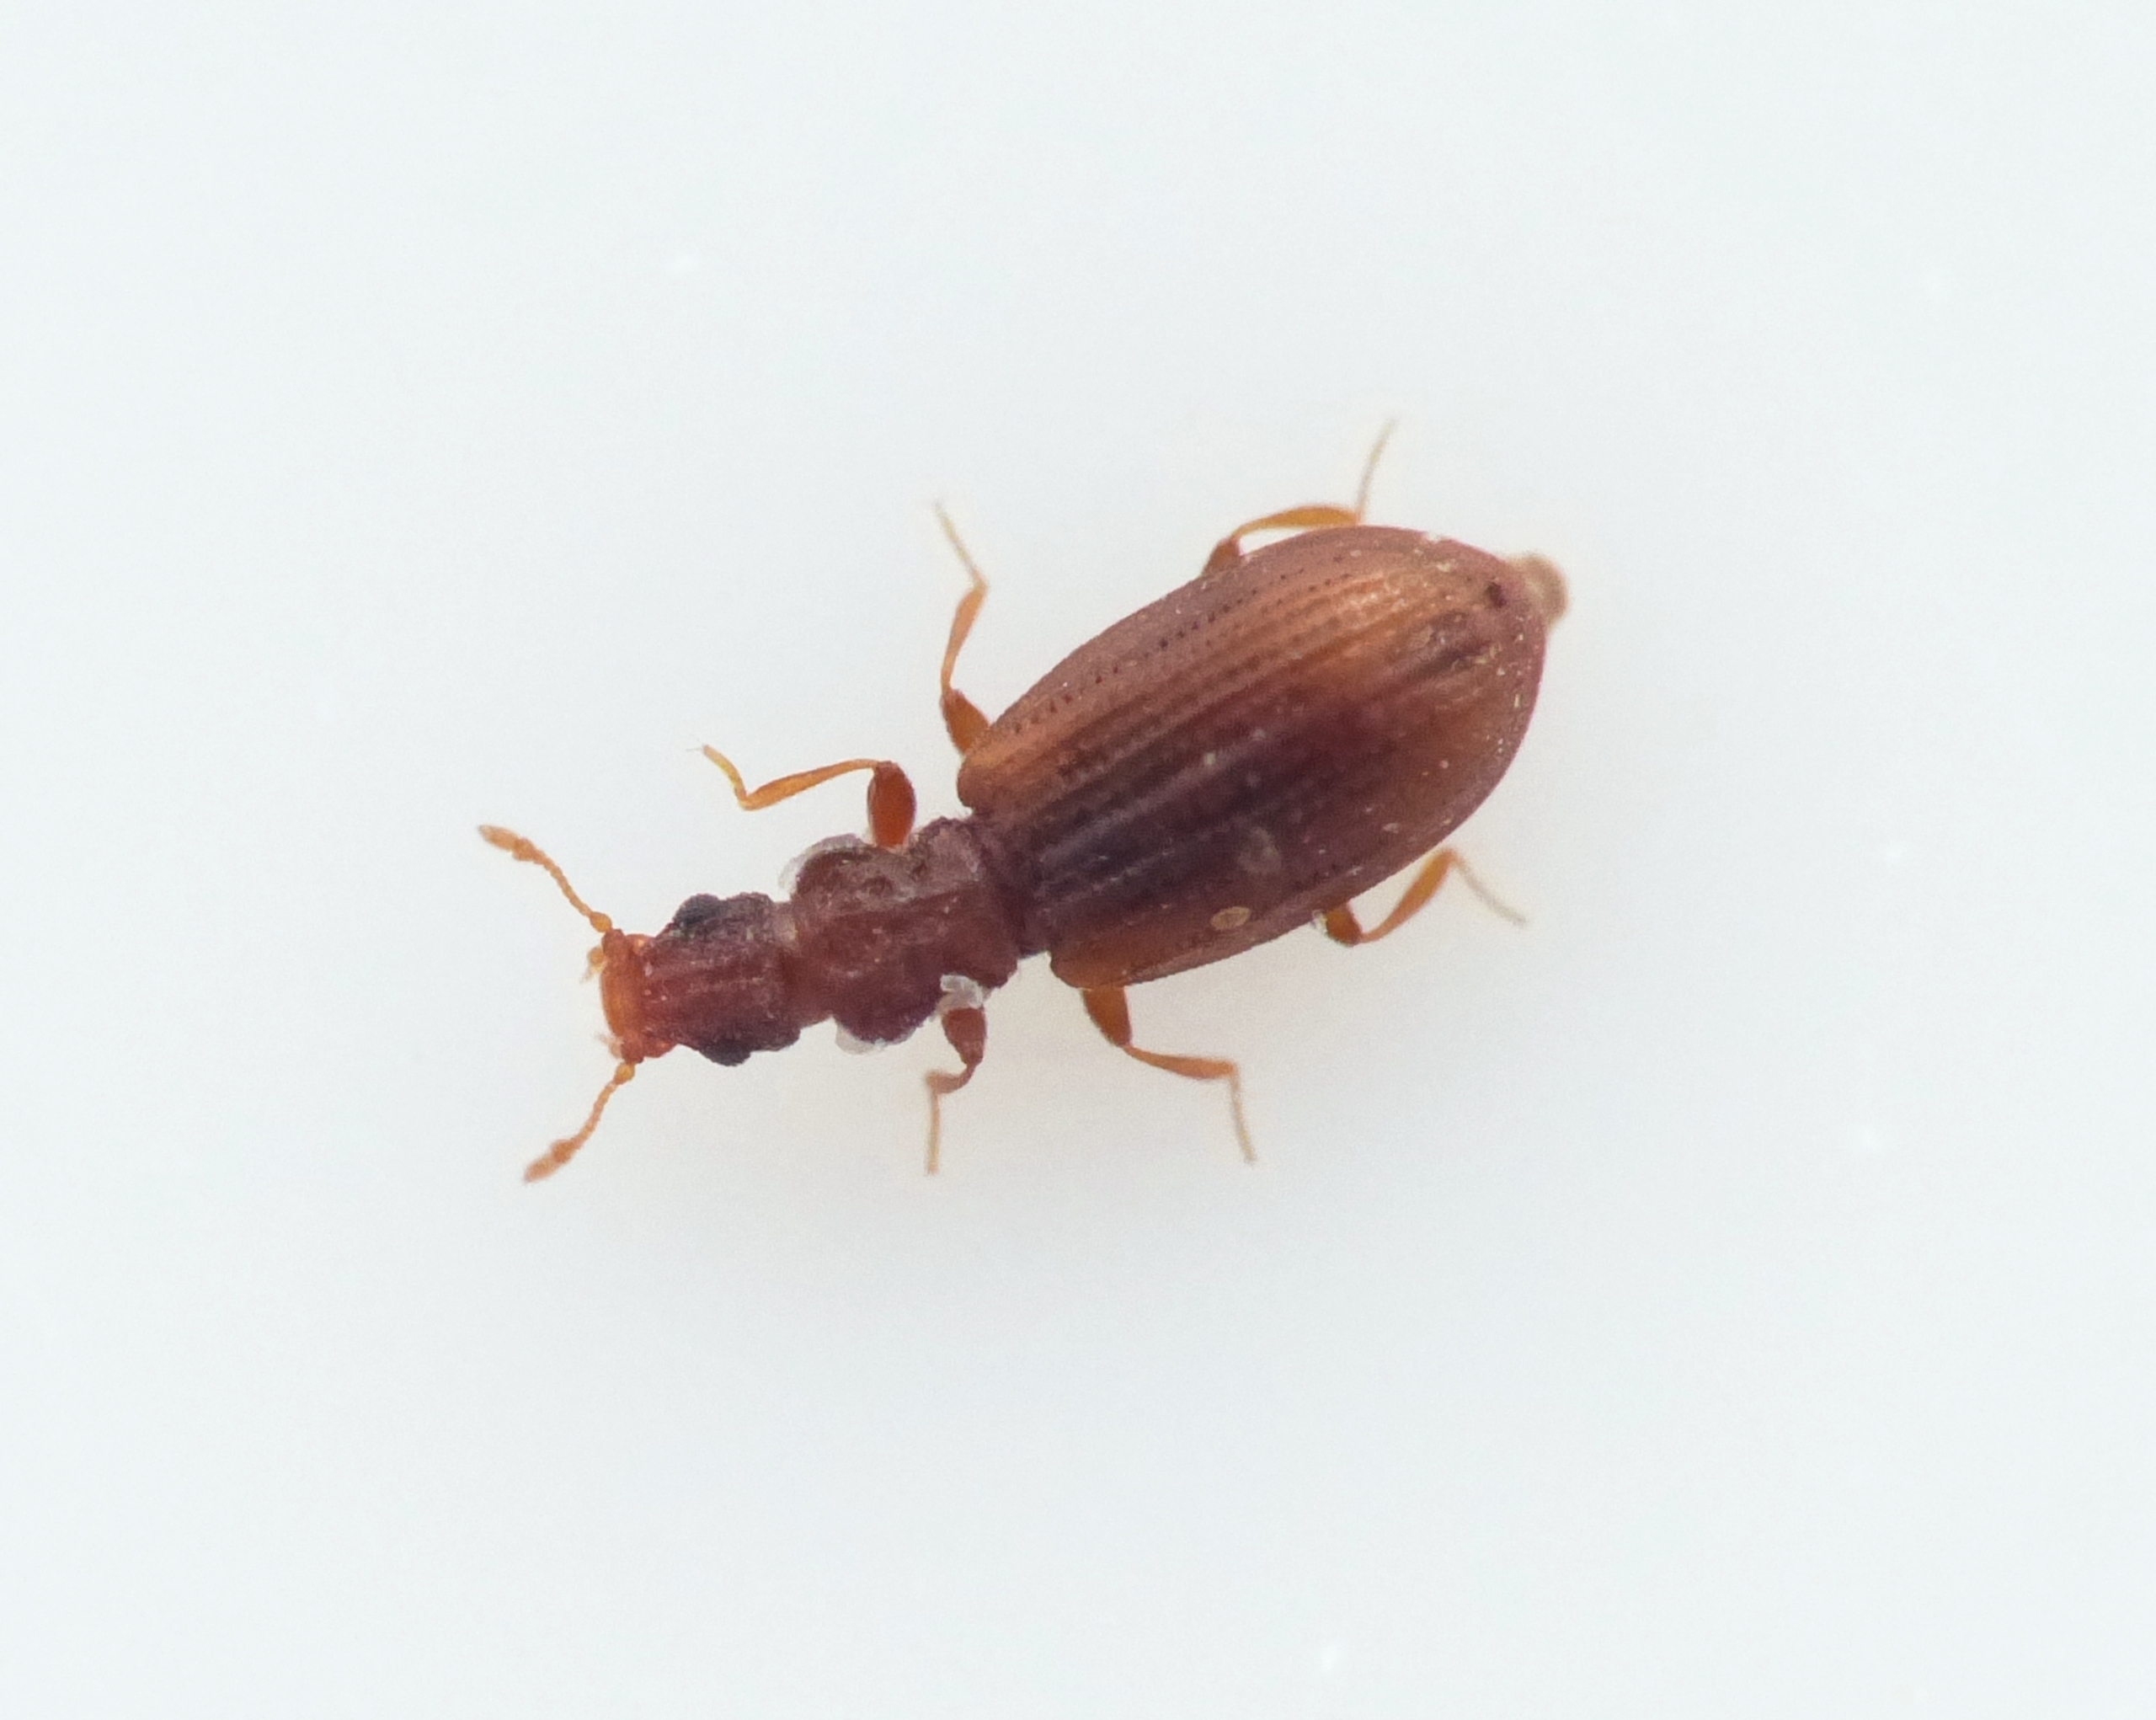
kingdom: Animalia
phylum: Arthropoda
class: Insecta
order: Coleoptera
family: Latridiidae
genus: Cartodere
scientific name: Cartodere constricta
